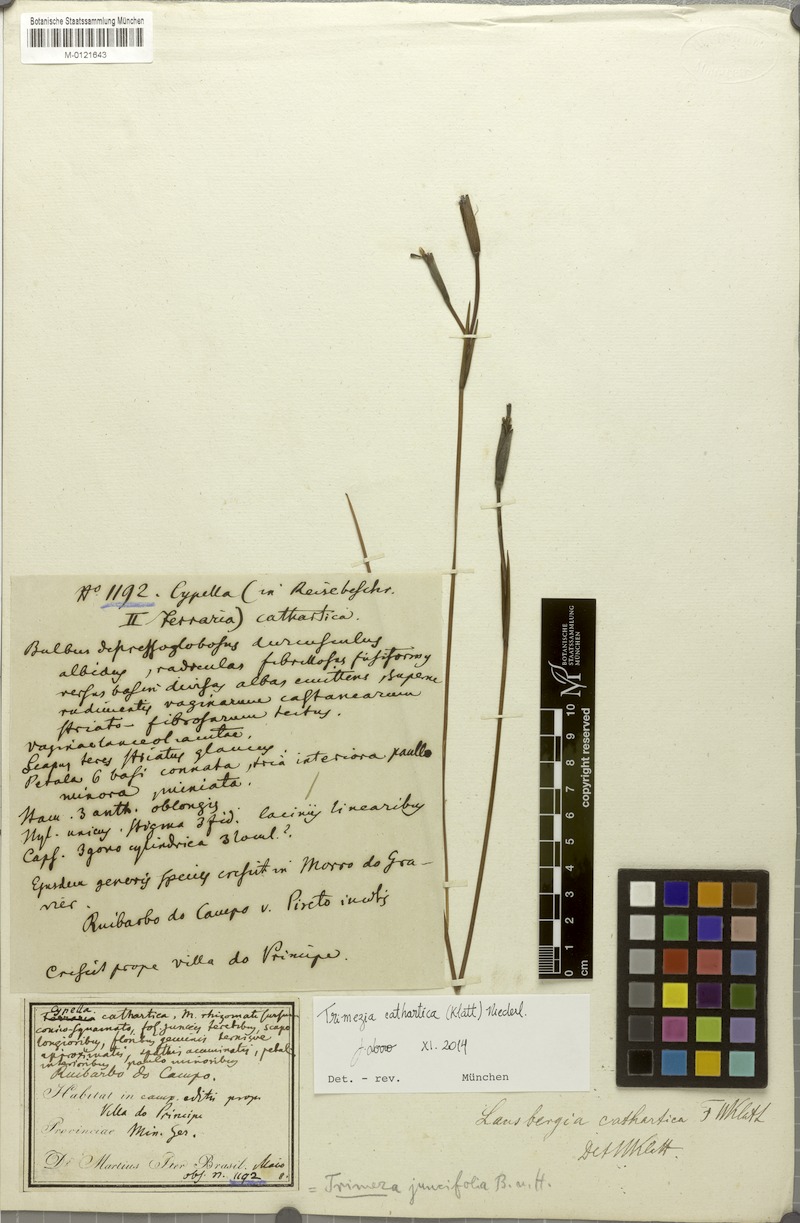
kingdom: Plantae
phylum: Tracheophyta
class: Liliopsida
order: Asparagales
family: Iridaceae
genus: Trimezia
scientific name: Trimezia cathartica
